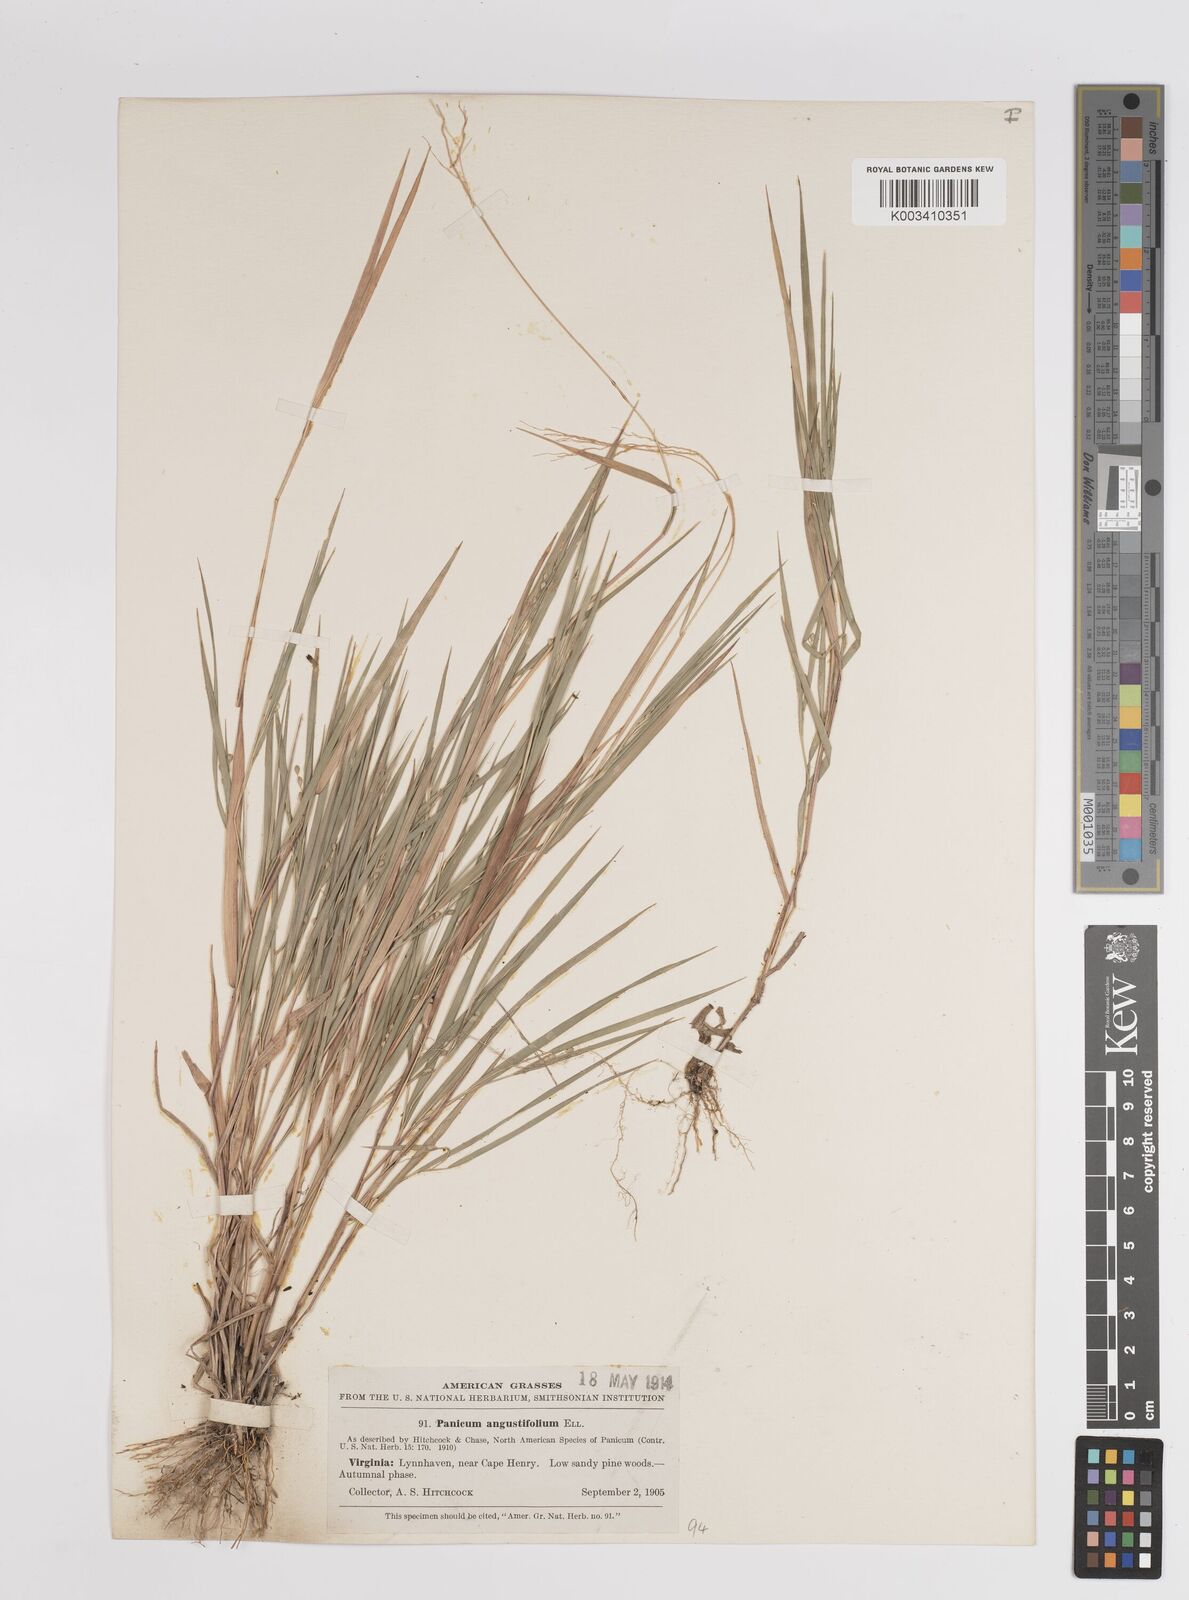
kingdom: Plantae
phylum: Tracheophyta
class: Liliopsida
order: Poales
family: Poaceae
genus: Dichanthelium
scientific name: Dichanthelium angustifolium
